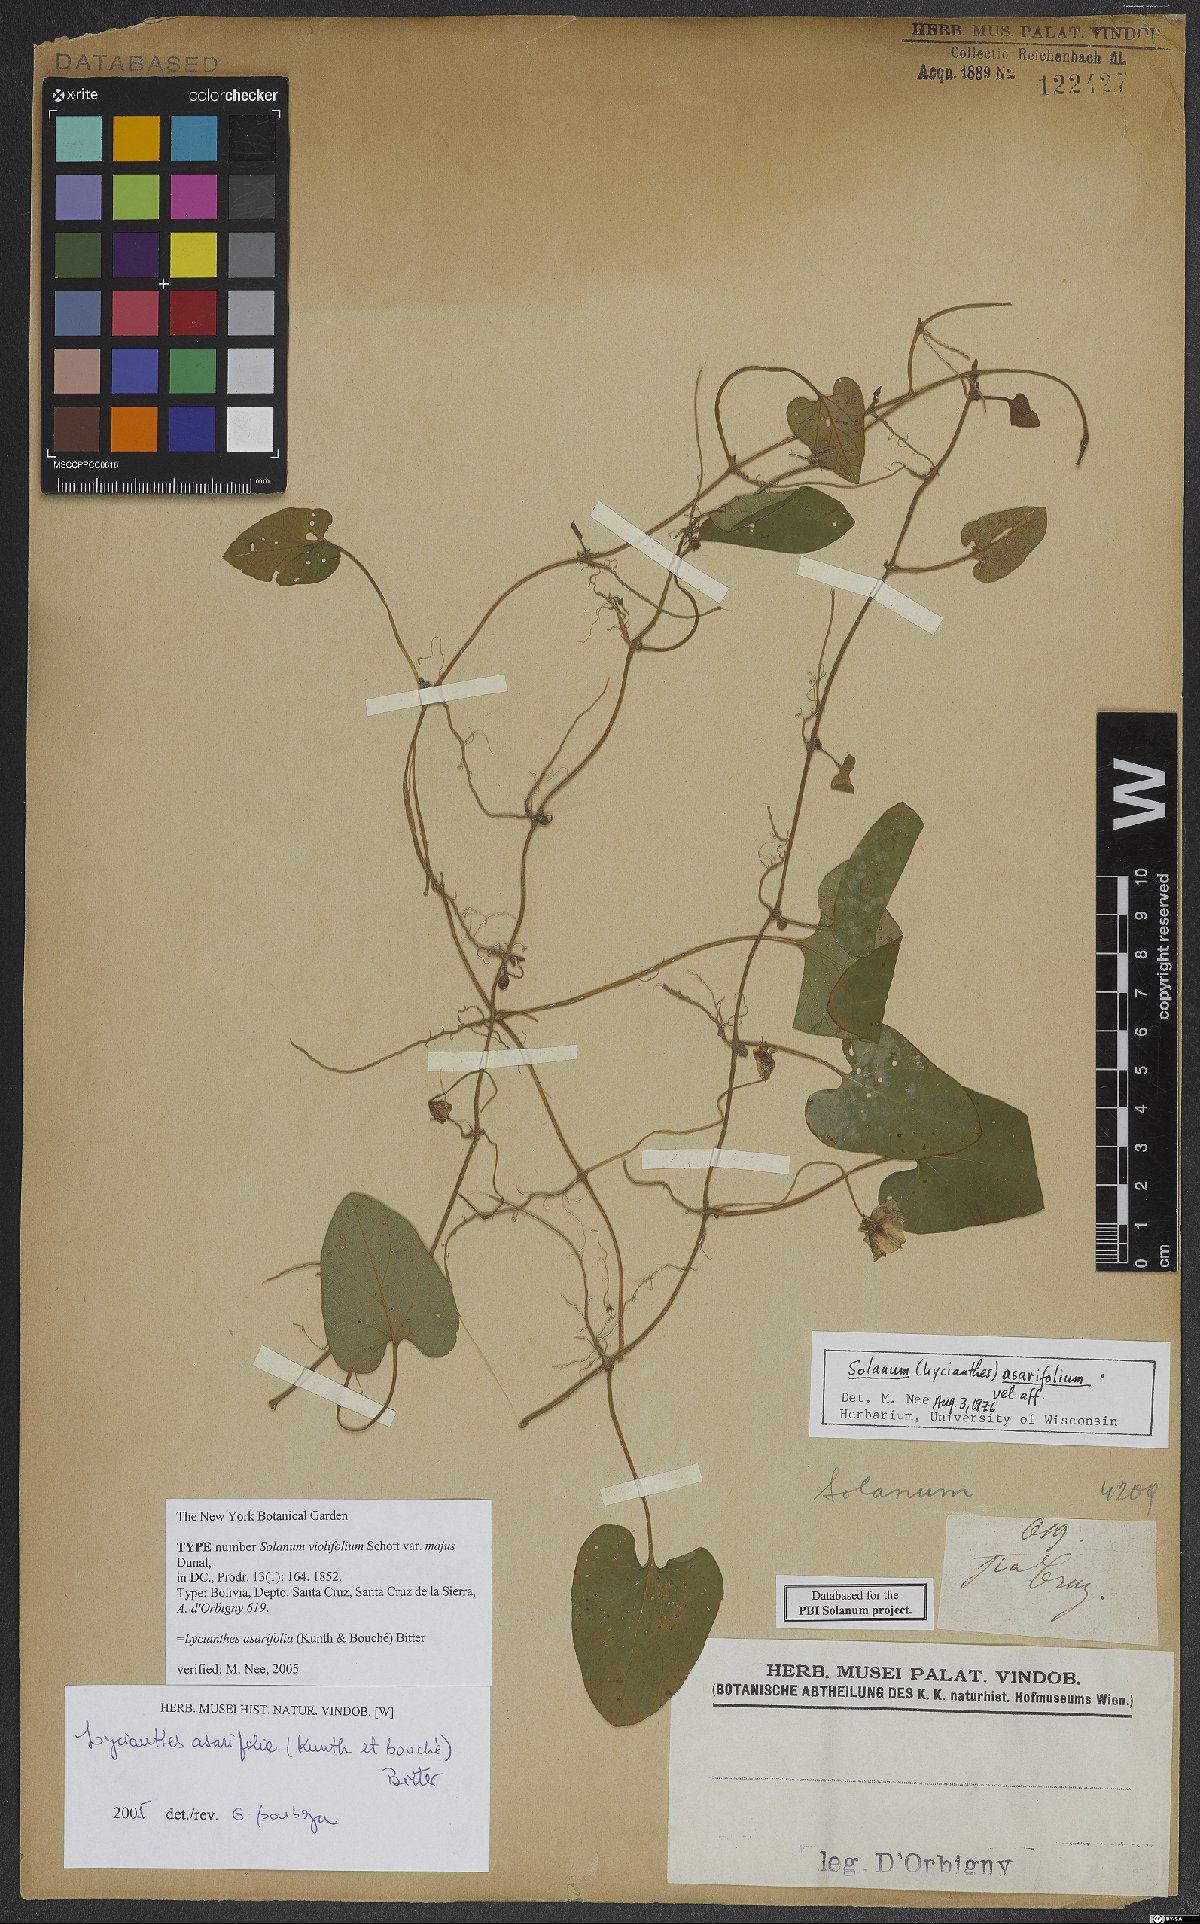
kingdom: Plantae
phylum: Tracheophyta
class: Magnoliopsida
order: Solanales
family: Solanaceae
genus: Lycianthes
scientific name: Lycianthes repens
